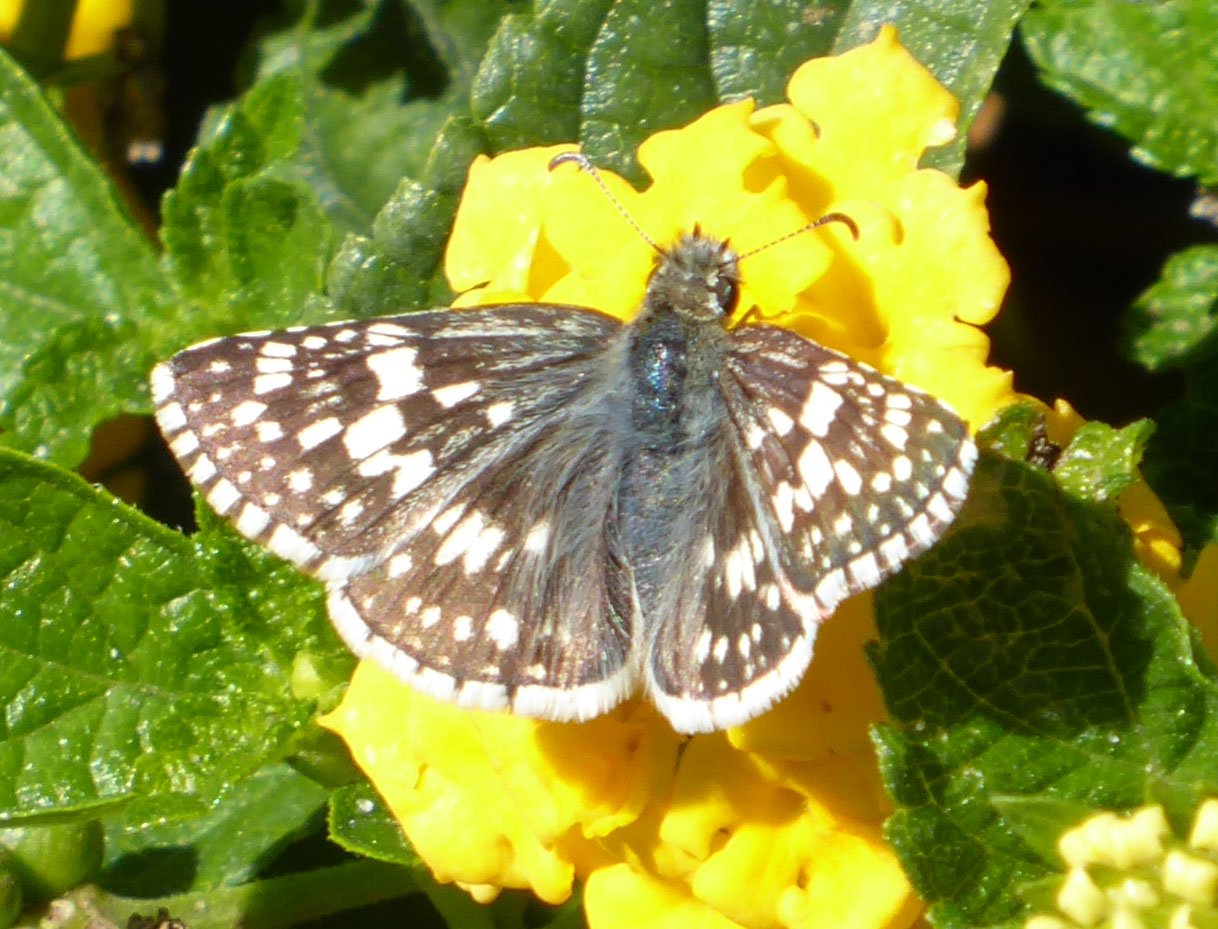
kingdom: Animalia
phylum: Arthropoda
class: Insecta
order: Lepidoptera
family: Hesperiidae
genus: Pyrgus
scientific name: Pyrgus communis
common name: Common Checkered-Skipper
